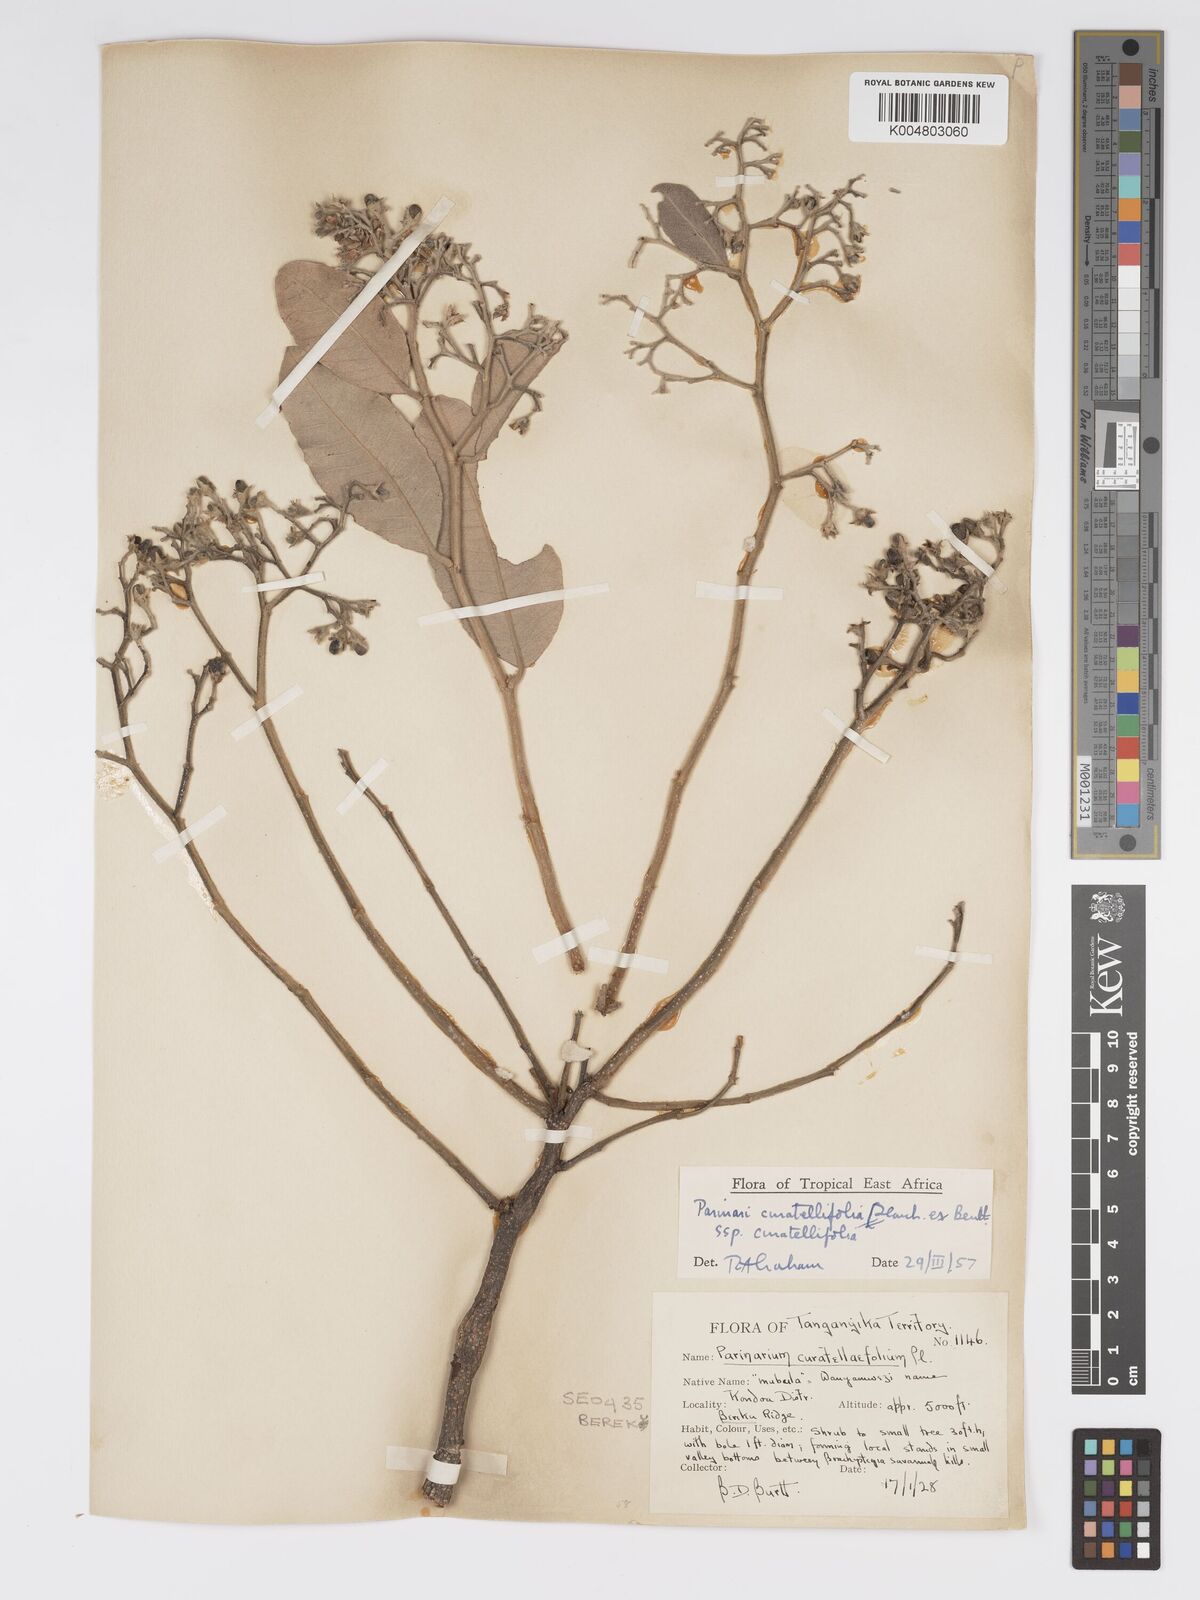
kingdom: Plantae
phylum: Tracheophyta
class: Magnoliopsida
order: Malpighiales
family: Chrysobalanaceae
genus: Parinari
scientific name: Parinari curatellifolia
